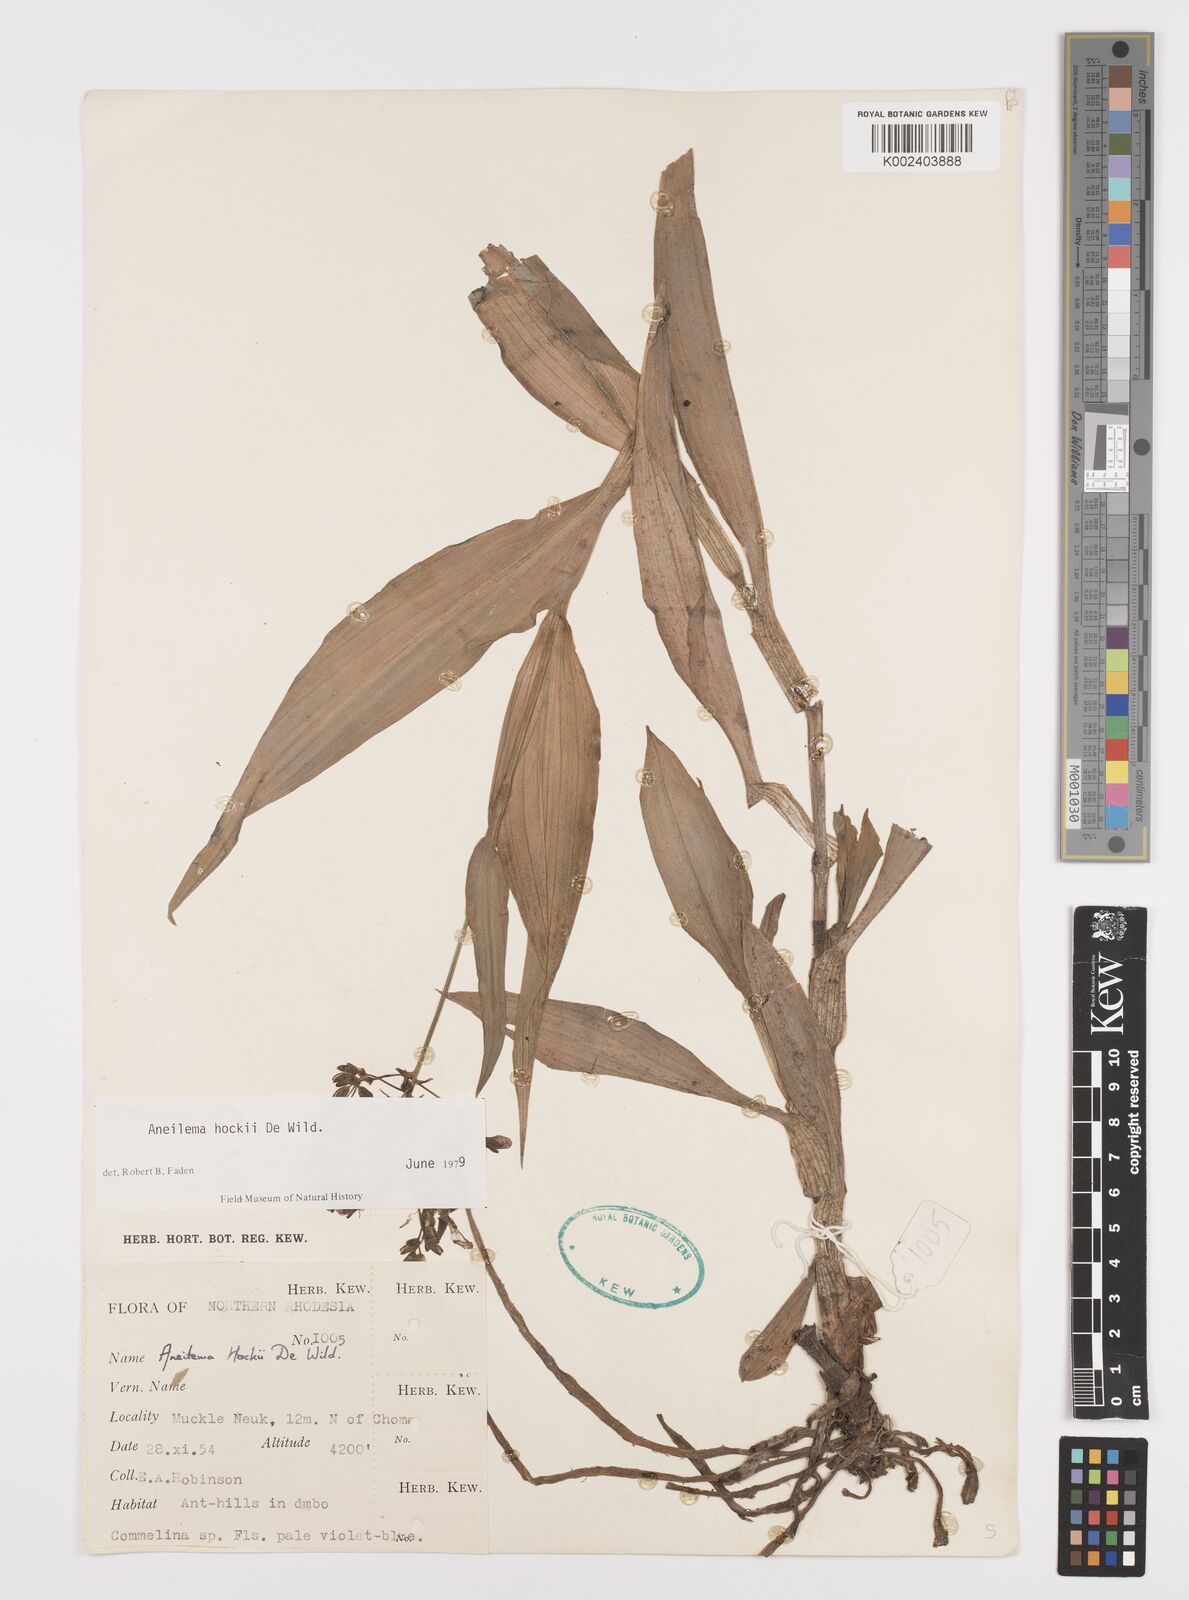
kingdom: Plantae
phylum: Tracheophyta
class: Liliopsida
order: Commelinales
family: Commelinaceae
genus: Aneilema
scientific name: Aneilema hockii
